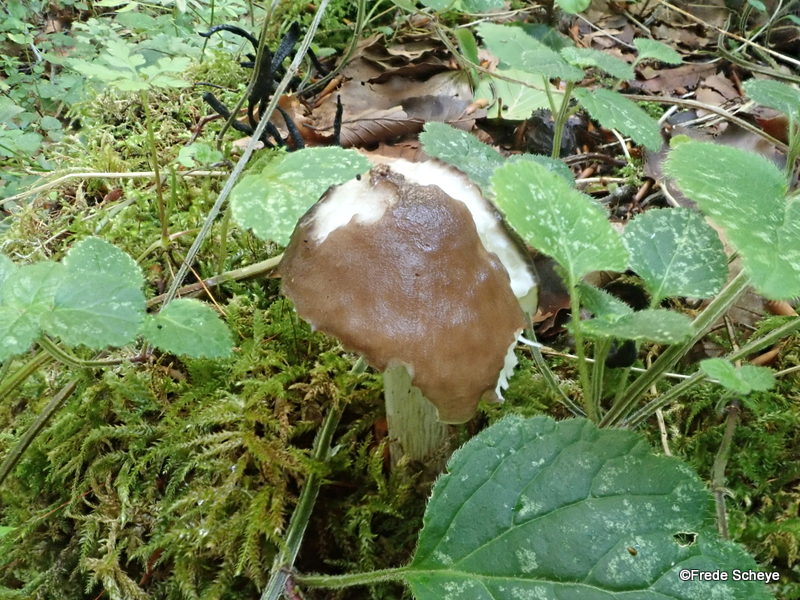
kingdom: Fungi
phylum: Basidiomycota
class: Agaricomycetes
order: Agaricales
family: Pluteaceae
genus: Pluteus
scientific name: Pluteus cervinus
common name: sodfarvet skærmhat
